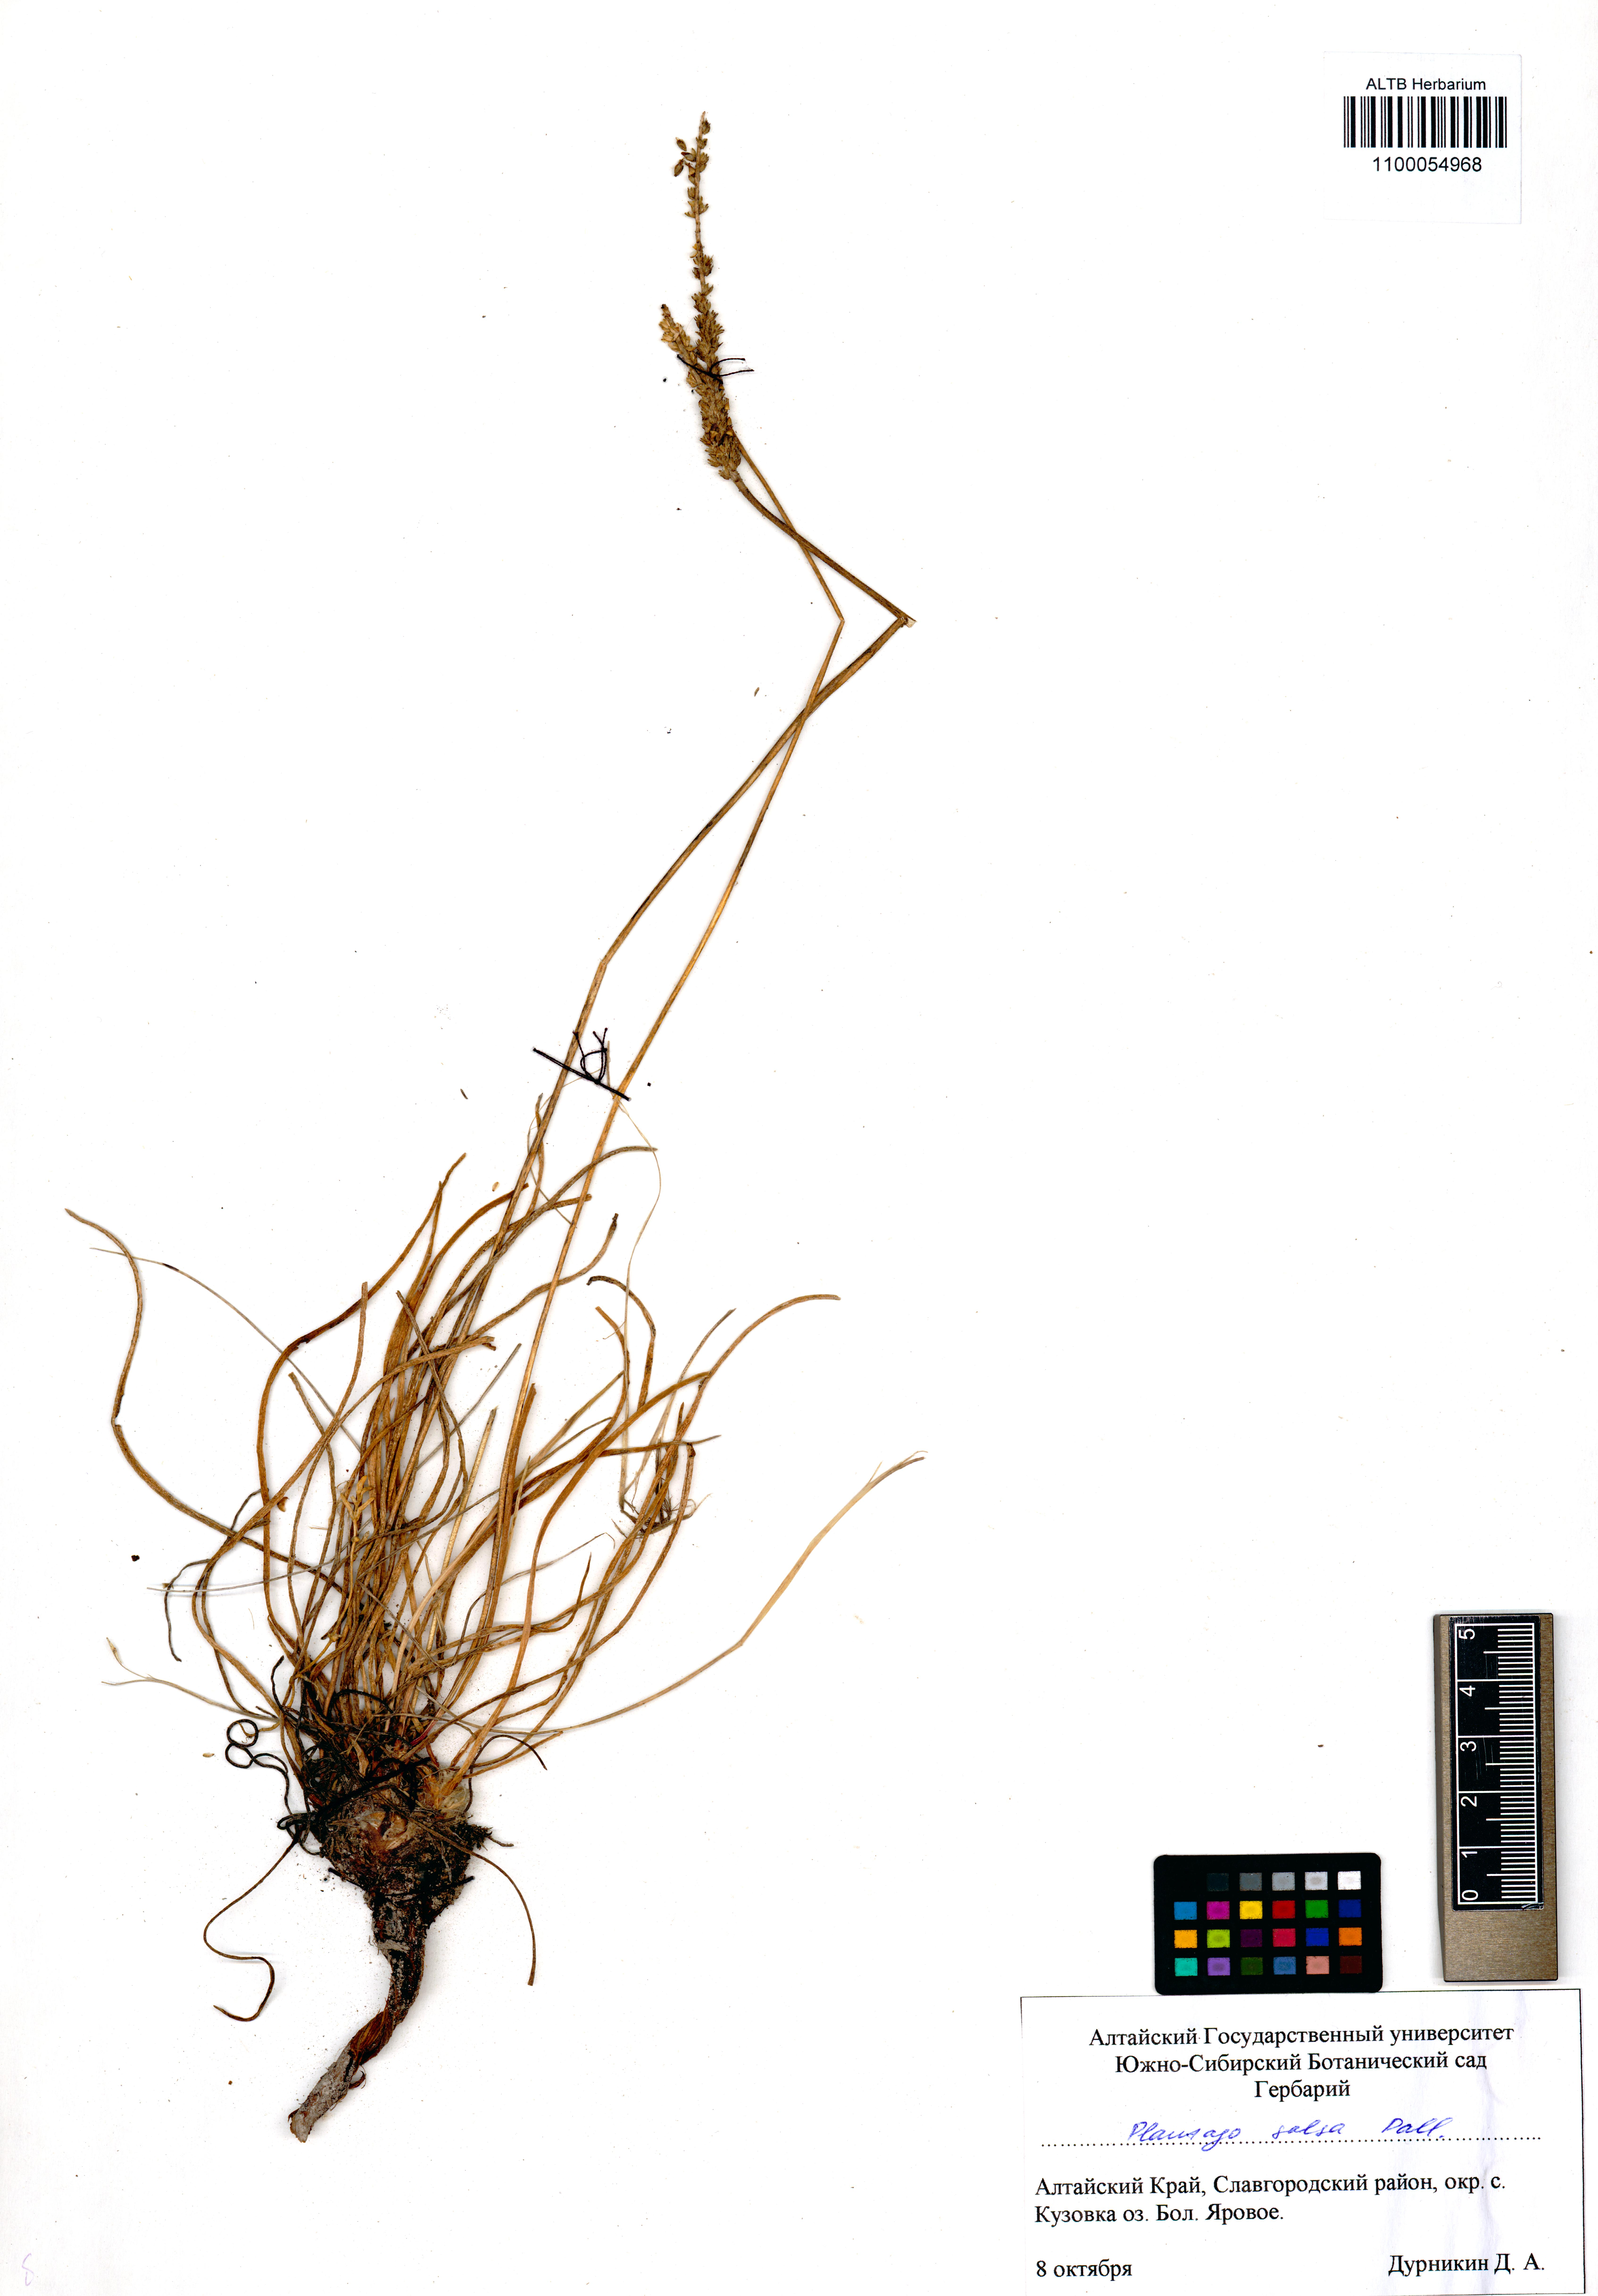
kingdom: Plantae
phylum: Tracheophyta
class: Magnoliopsida
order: Lamiales
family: Plantaginaceae
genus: Plantago
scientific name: Plantago salsa
